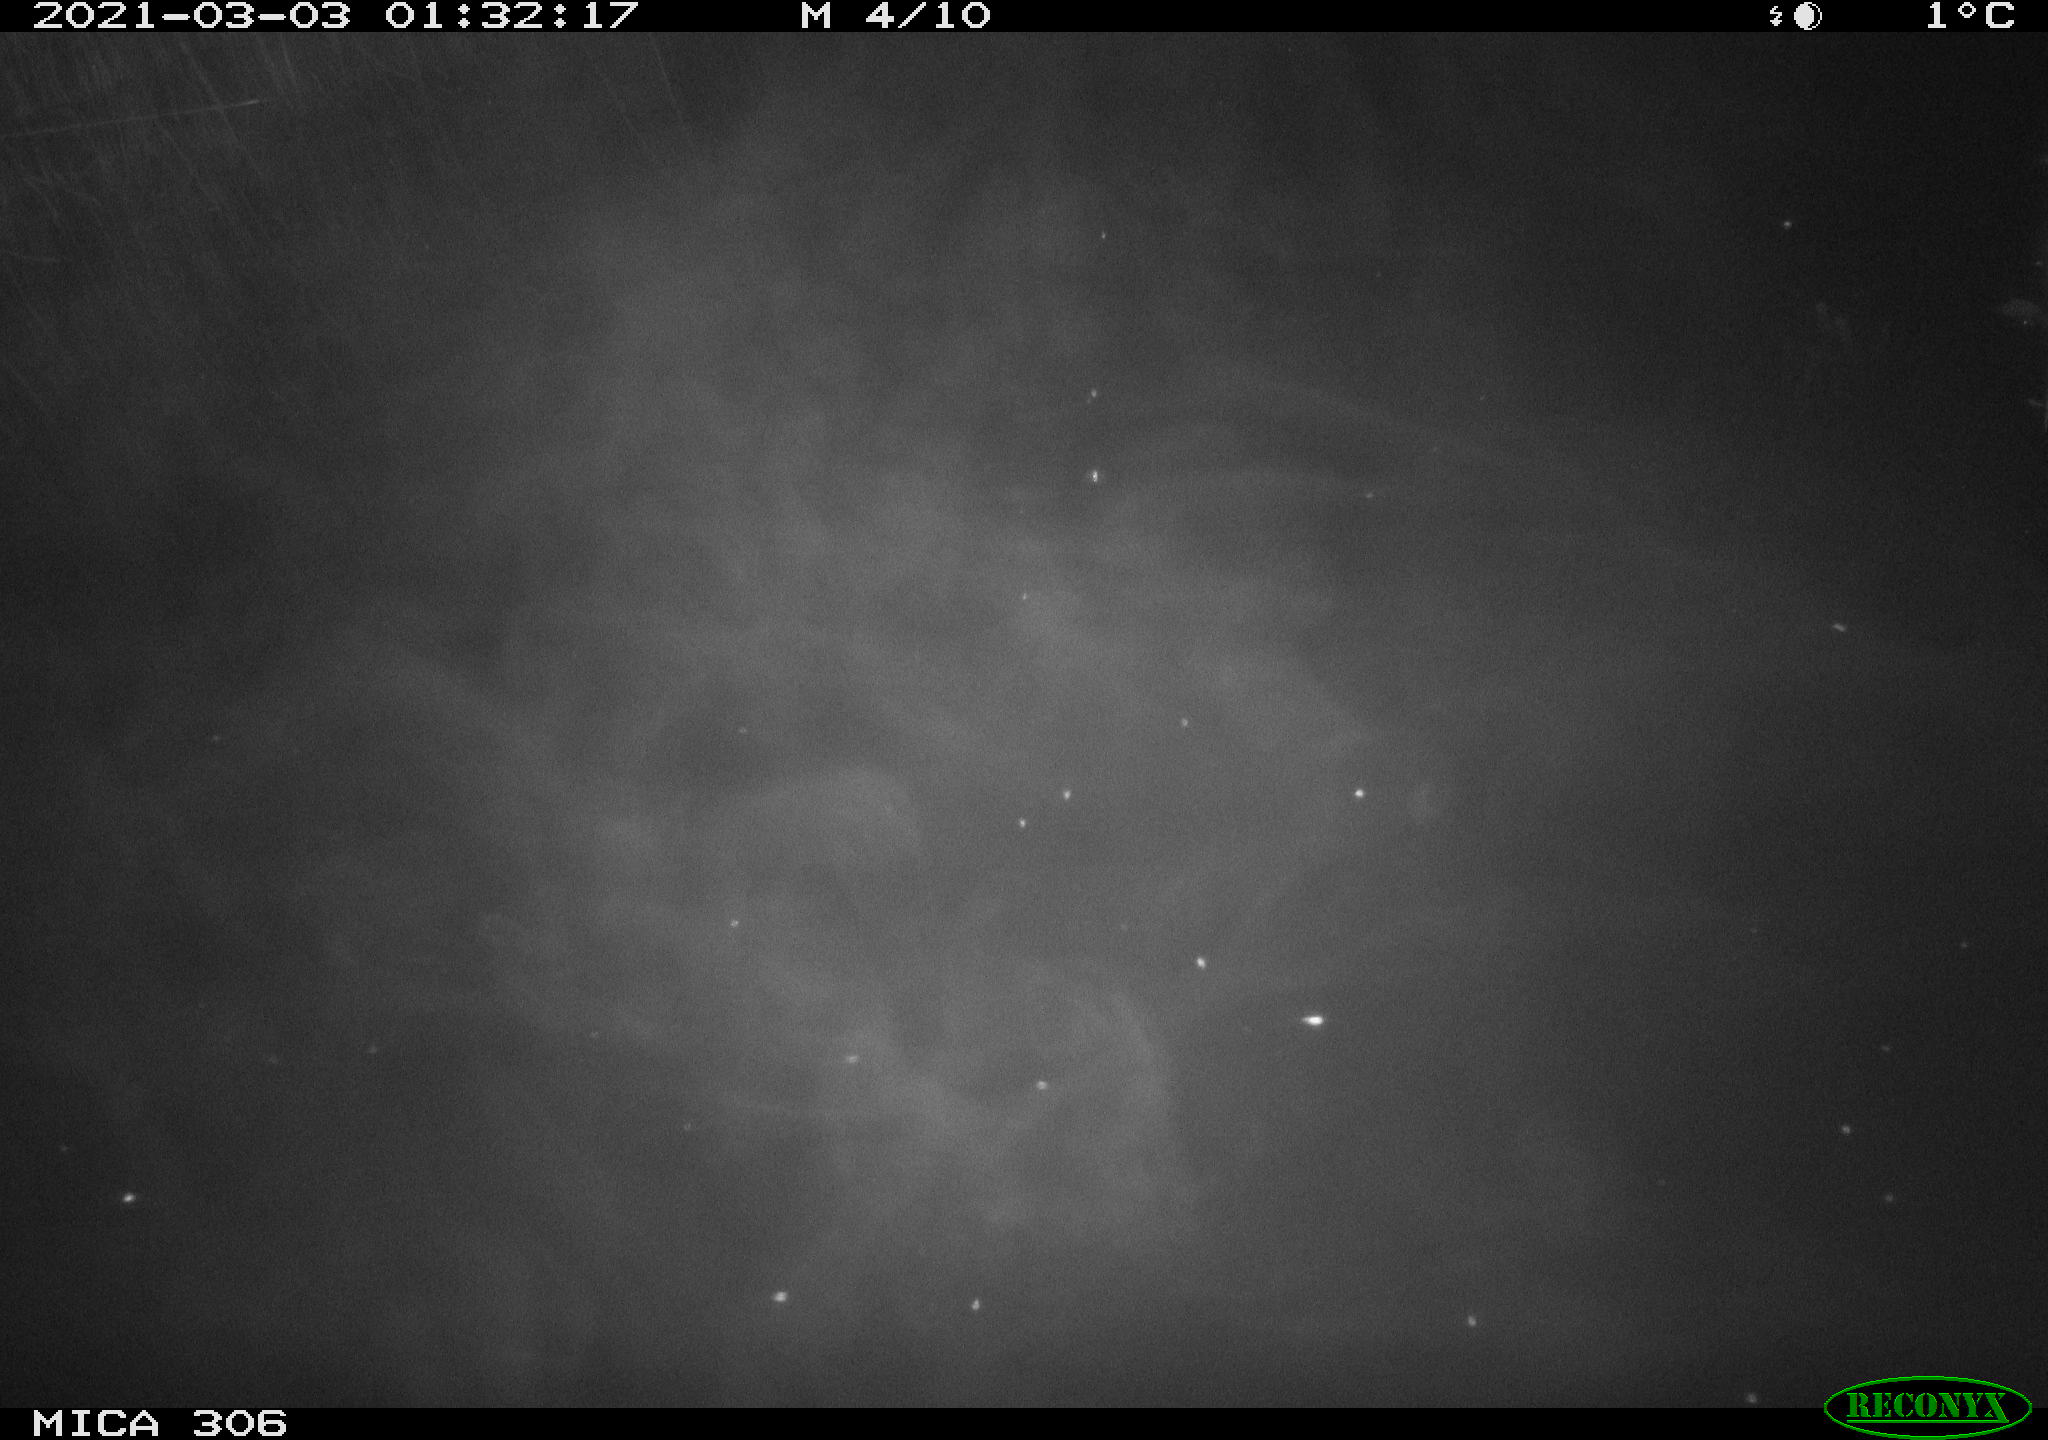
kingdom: Animalia
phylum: Chordata
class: Aves
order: Anseriformes
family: Anatidae
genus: Anas
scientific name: Anas platyrhynchos
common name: Mallard
